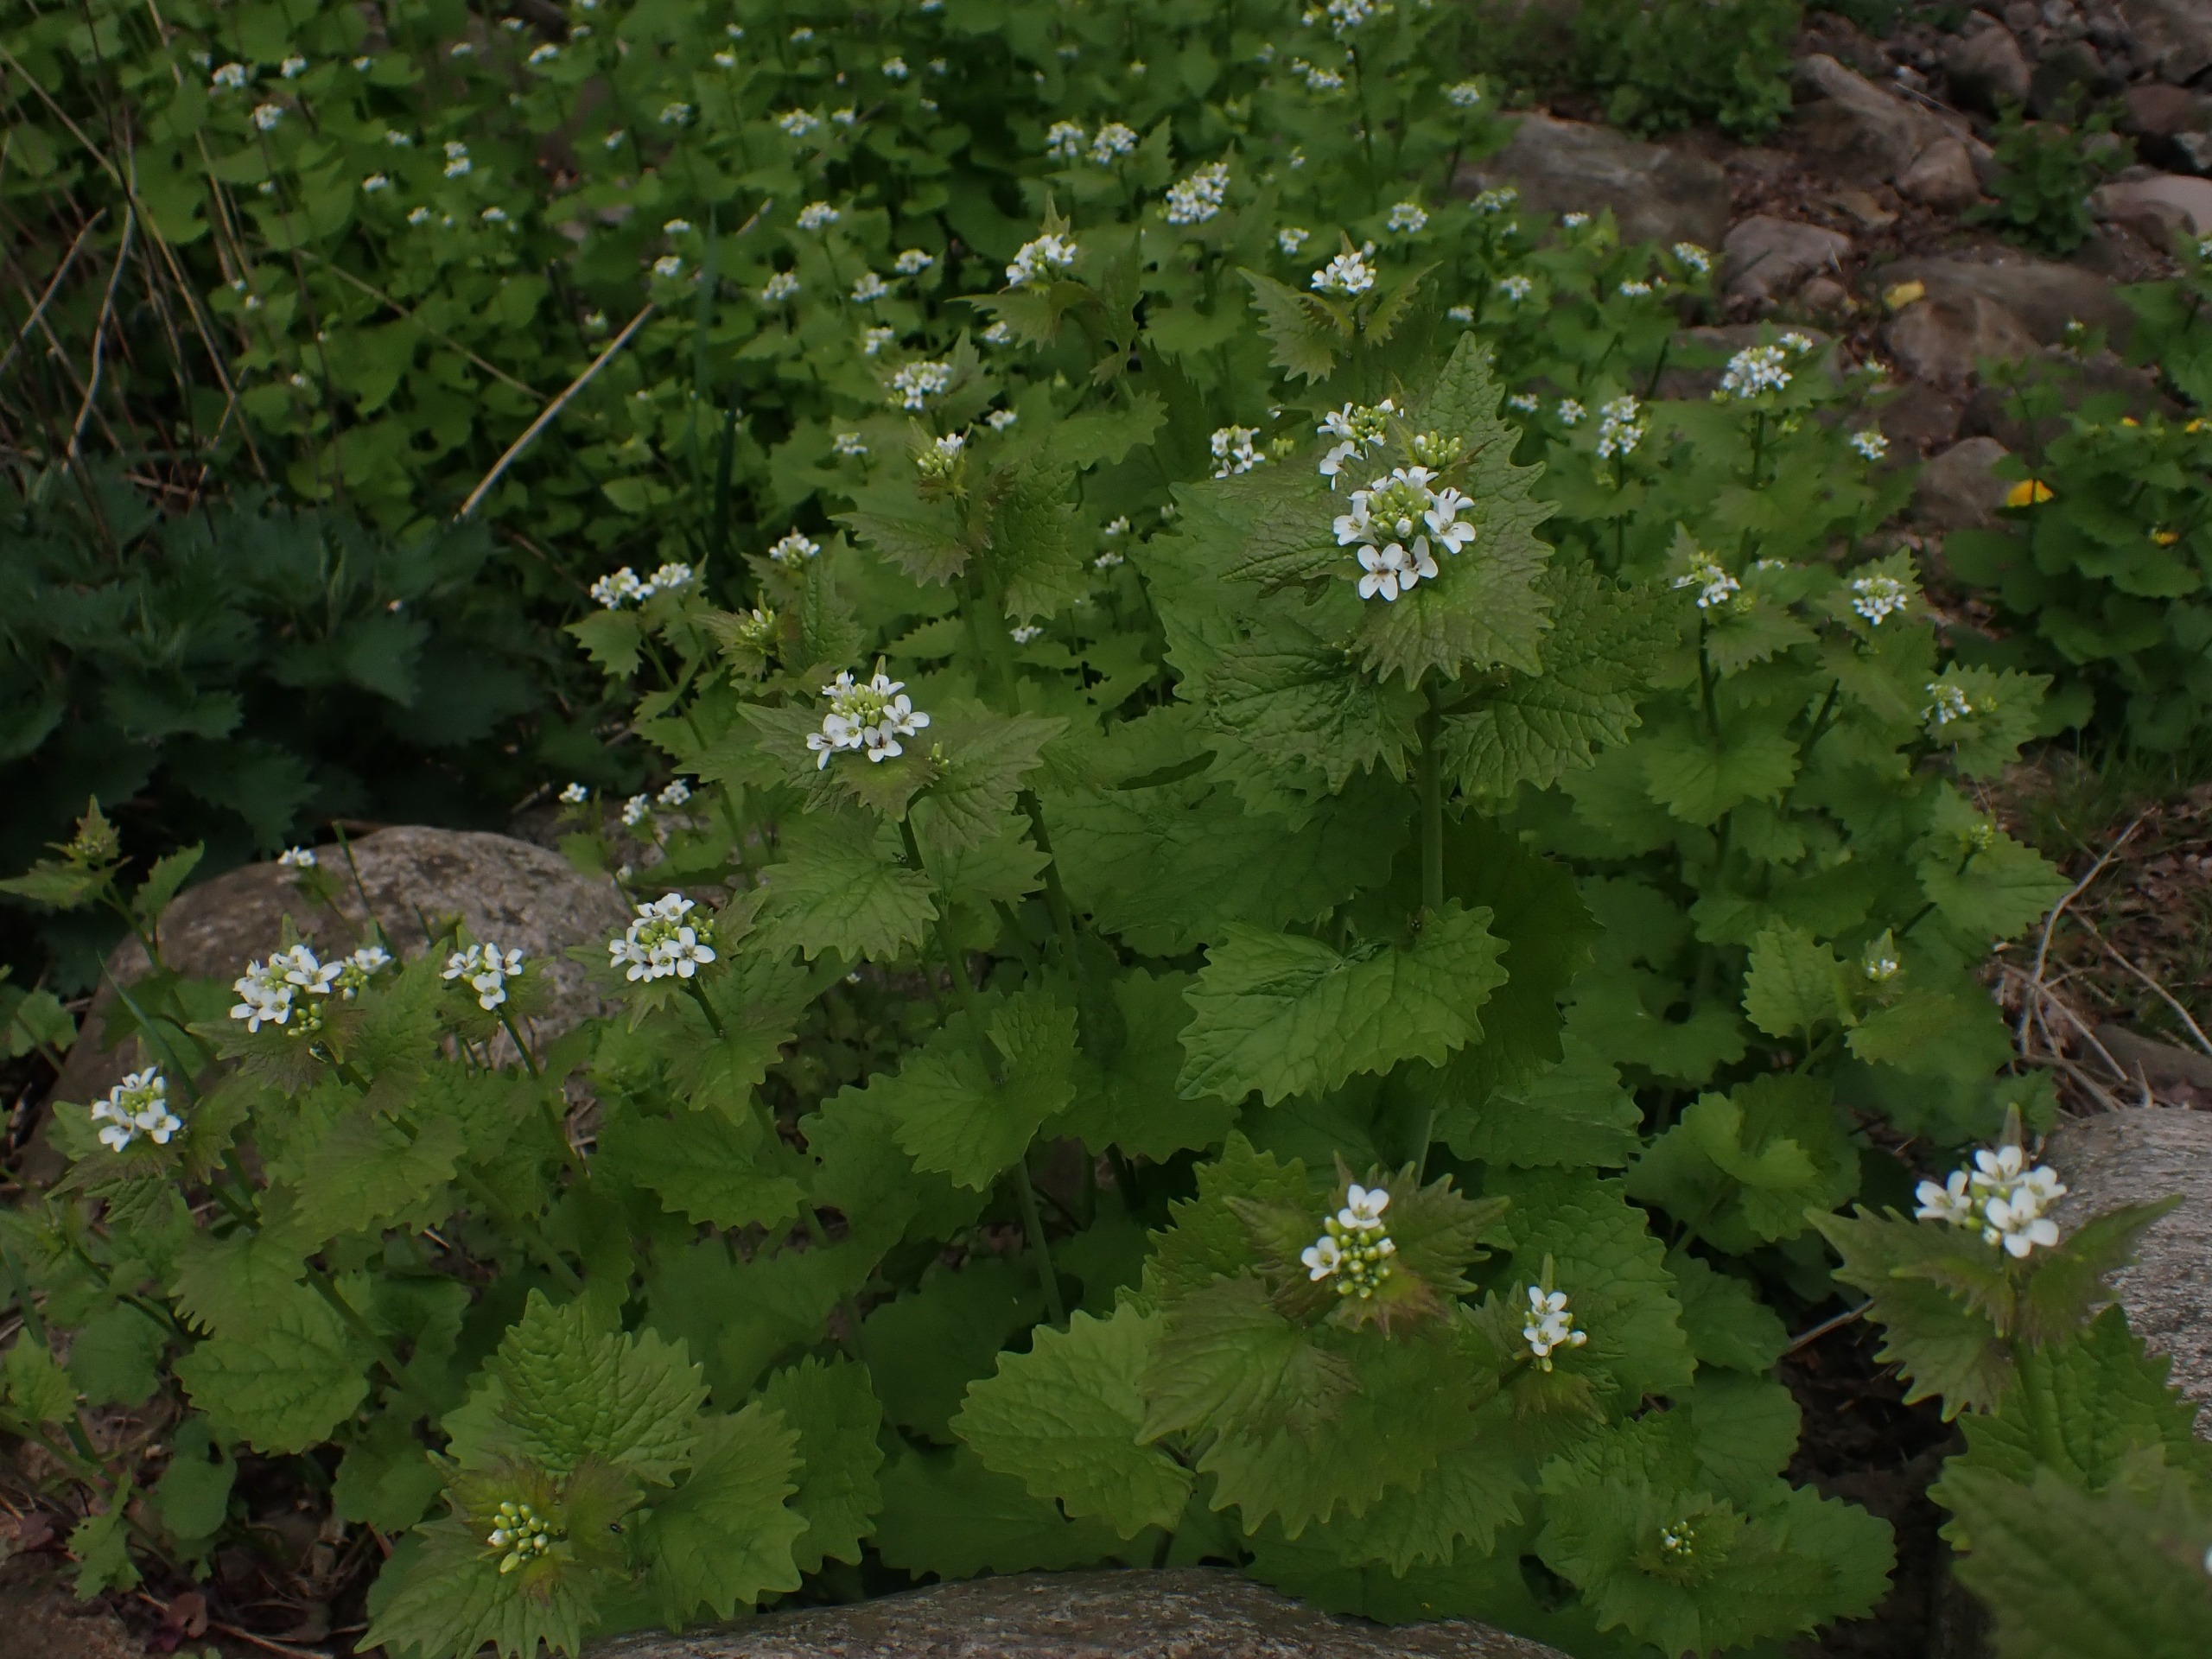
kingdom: Plantae
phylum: Tracheophyta
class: Magnoliopsida
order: Brassicales
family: Brassicaceae
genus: Alliaria
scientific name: Alliaria petiolata
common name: Løgkarse
